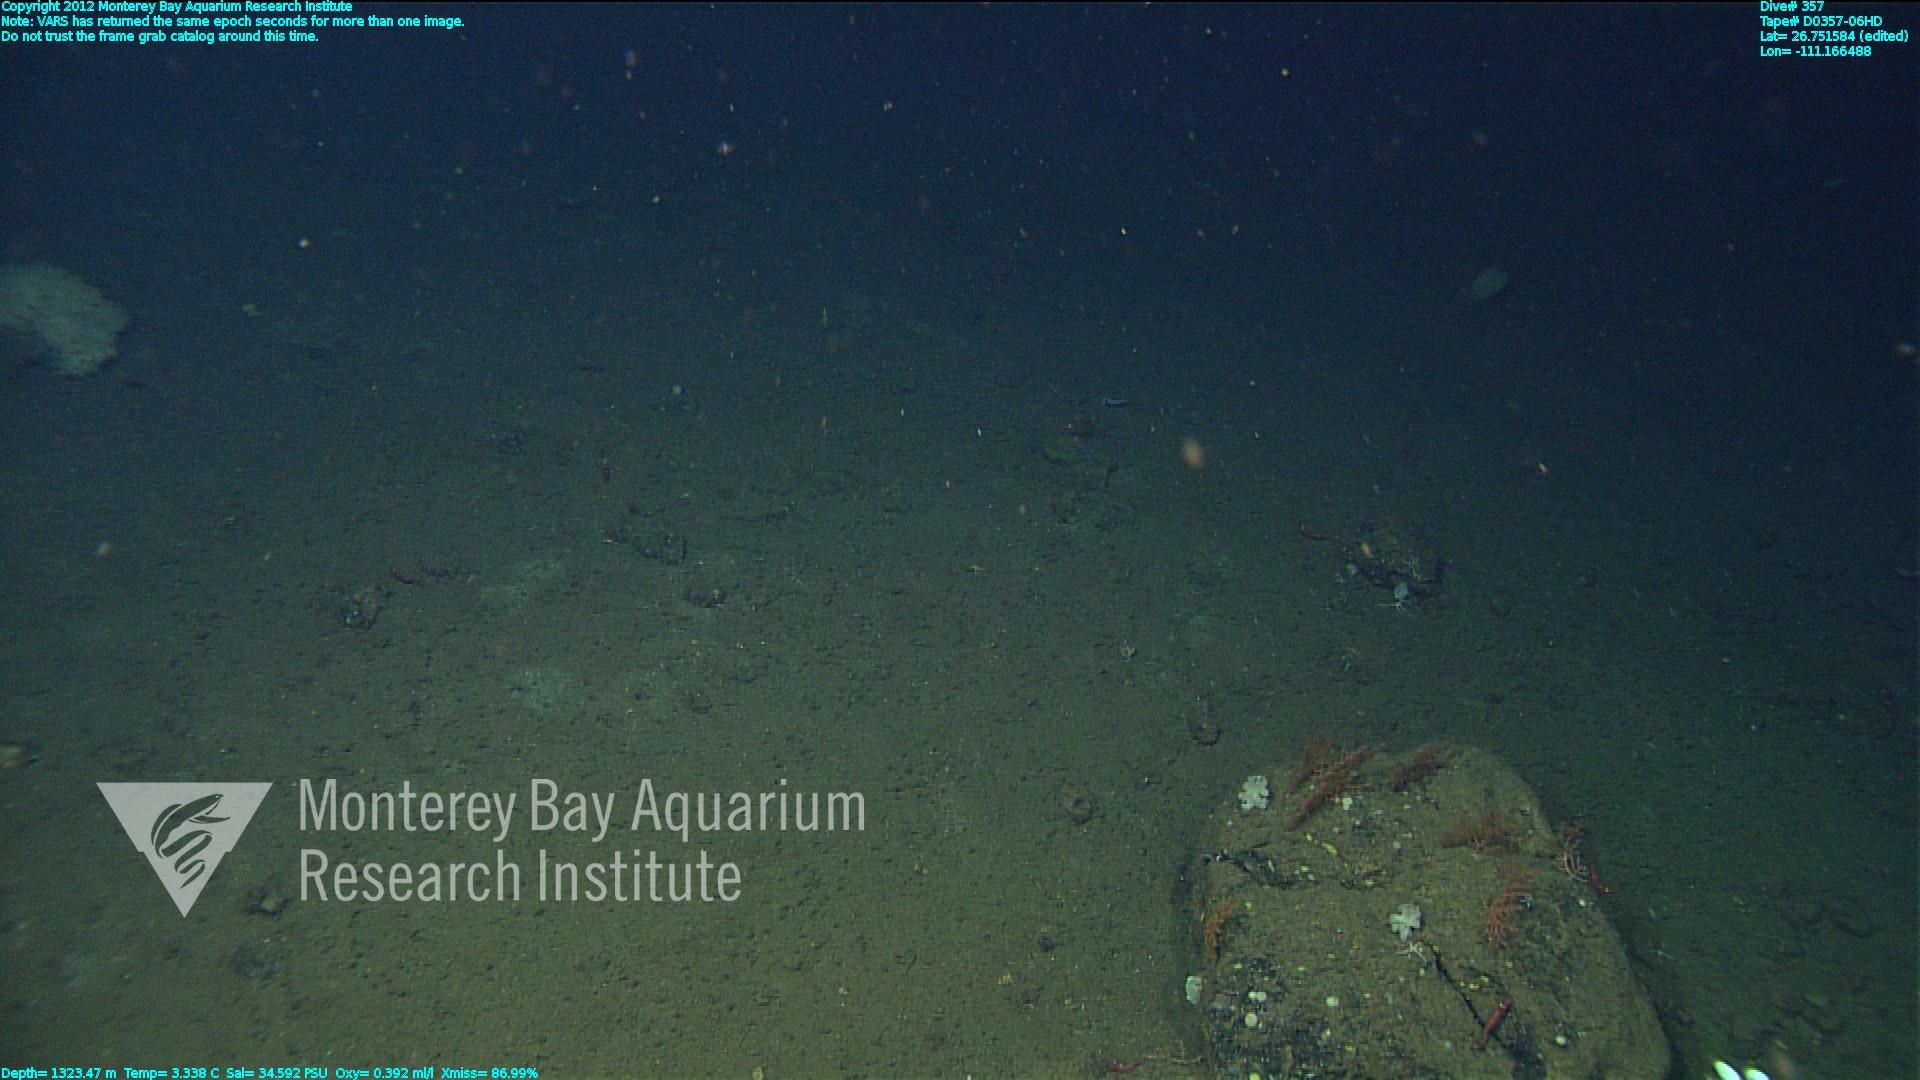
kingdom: Animalia
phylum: Cnidaria
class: Anthozoa
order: Malacalcyonacea
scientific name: Malacalcyonacea
